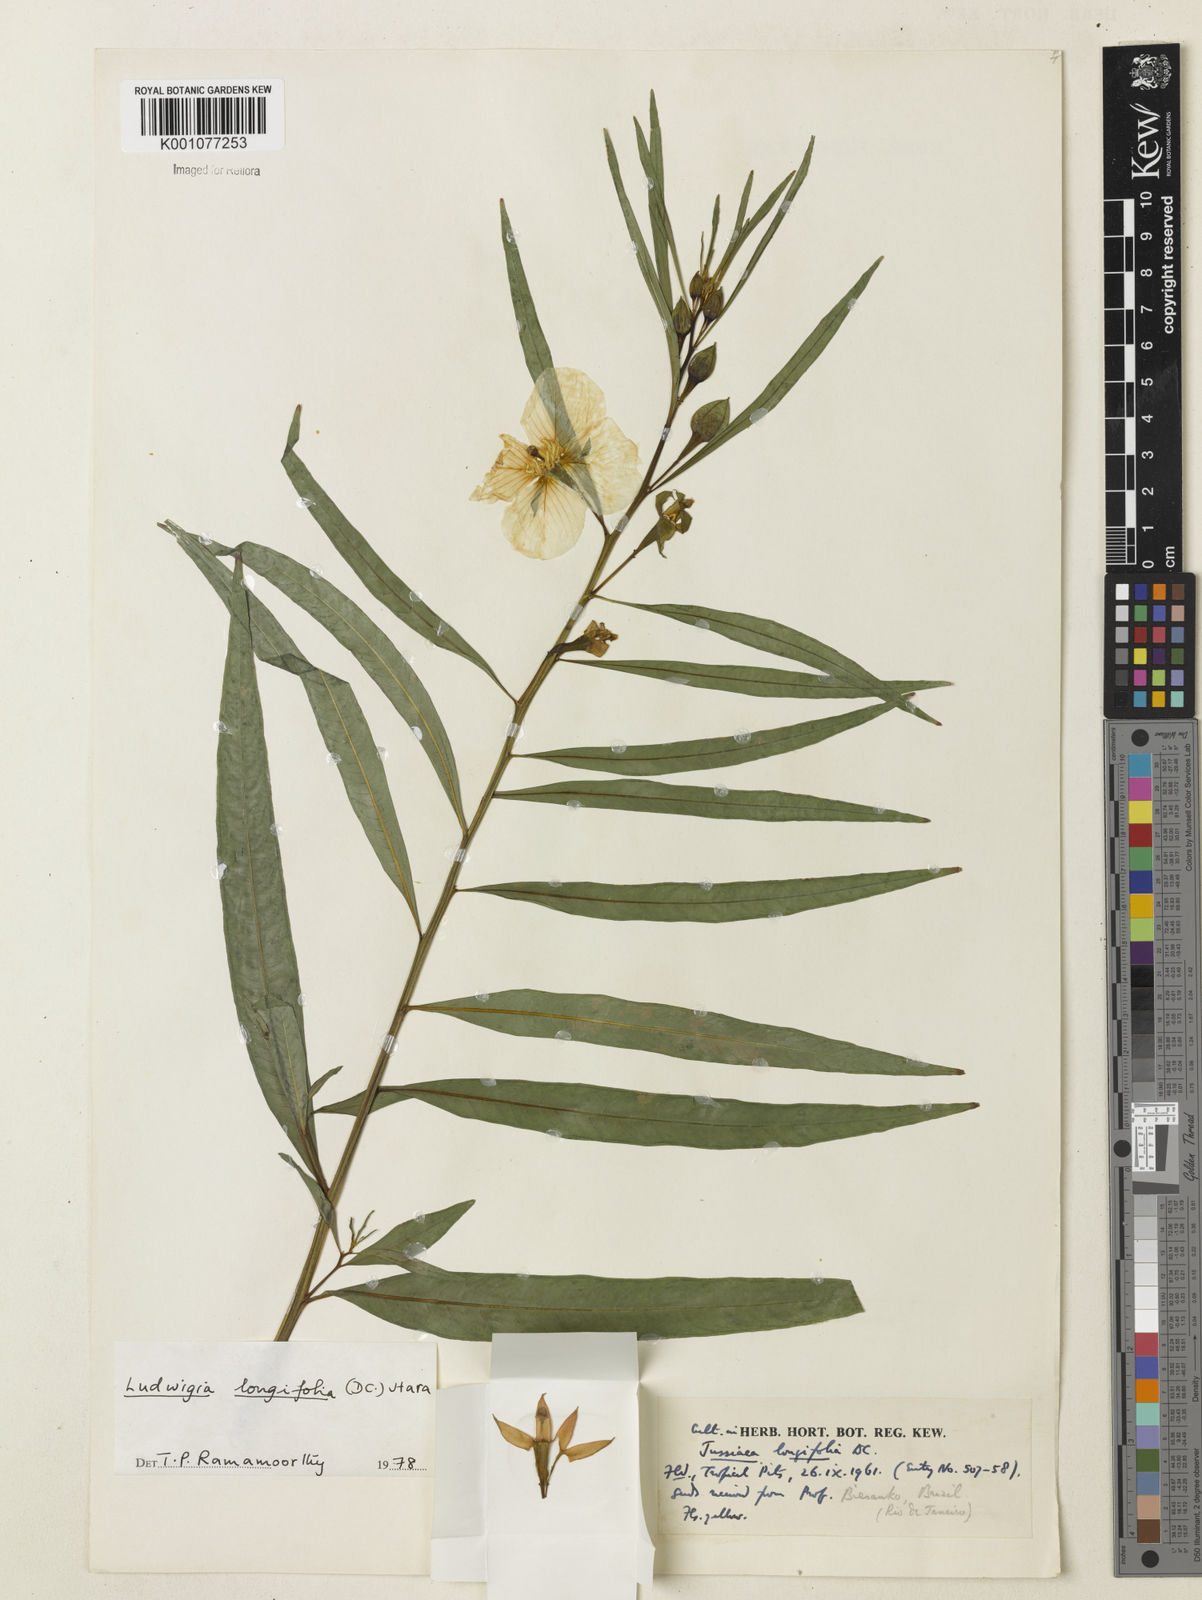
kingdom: Plantae
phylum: Tracheophyta
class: Magnoliopsida
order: Myrtales
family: Onagraceae
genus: Ludwigia
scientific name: Ludwigia longifolia
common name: Longleaf primrose-willow
